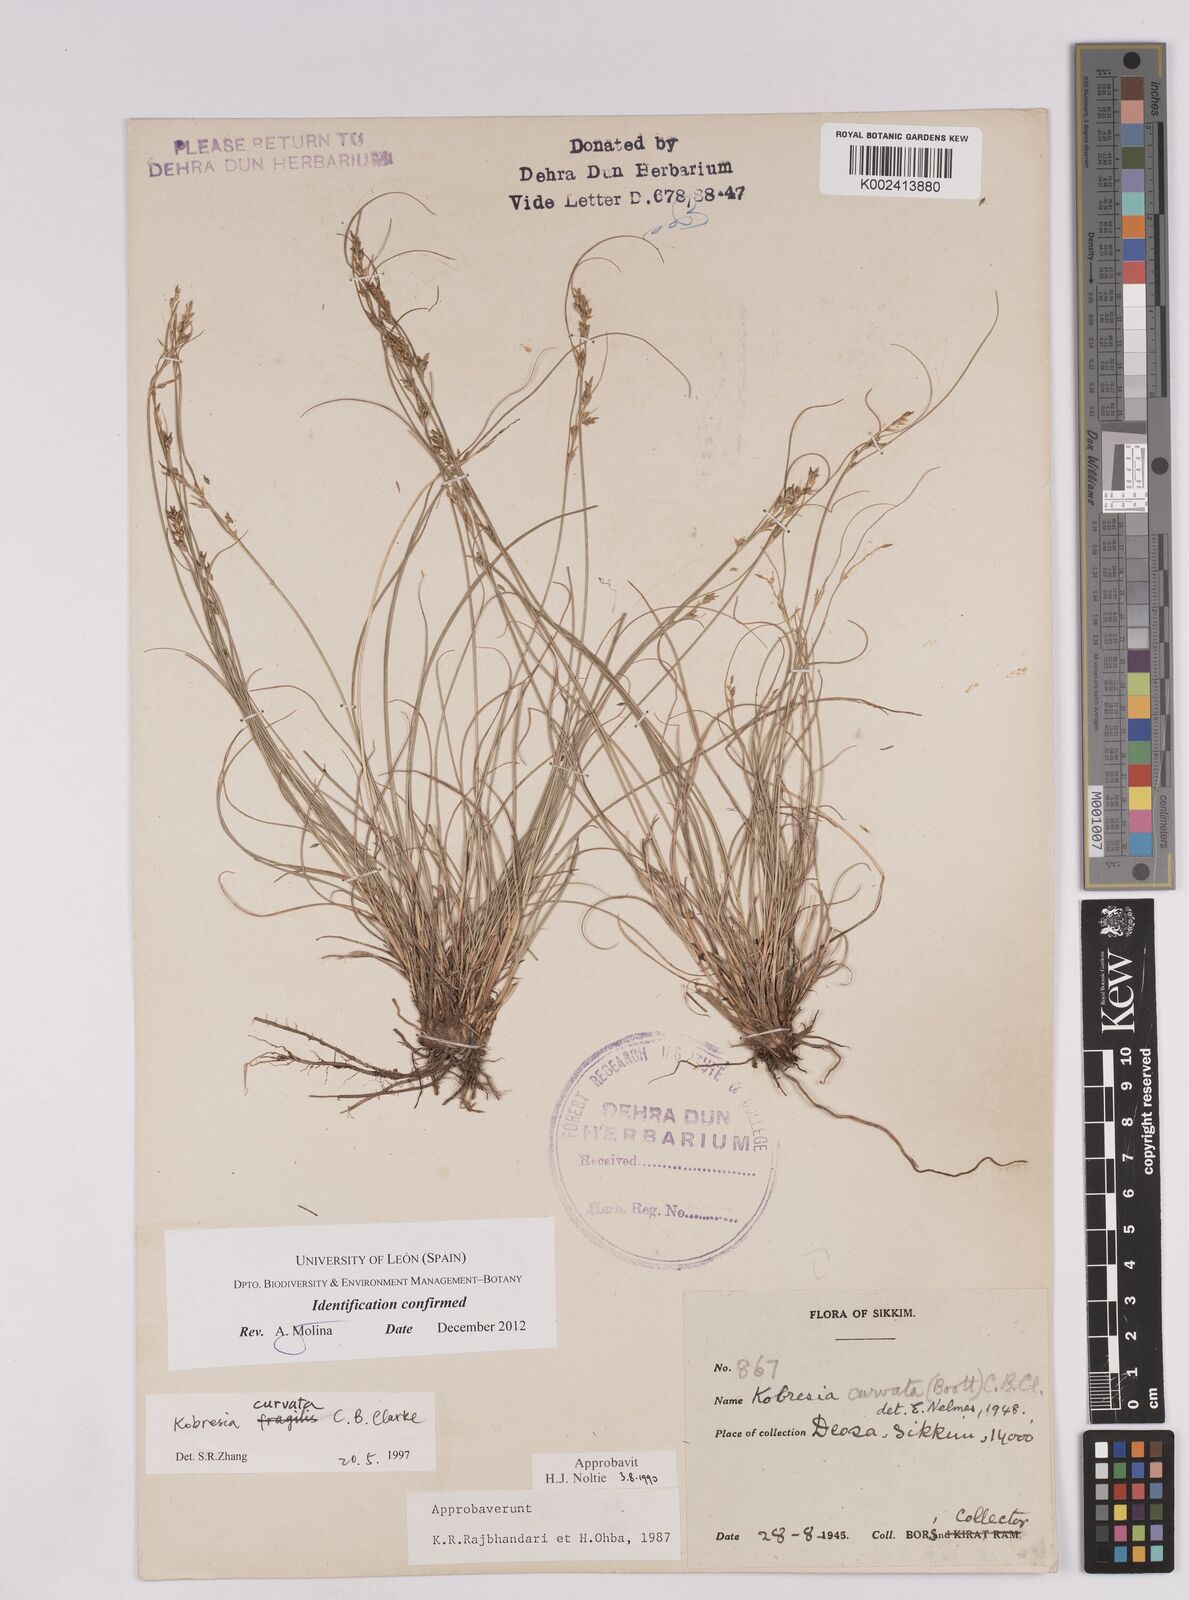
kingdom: Plantae
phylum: Tracheophyta
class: Liliopsida
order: Poales
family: Cyperaceae
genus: Carex
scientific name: Carex bonatiana
